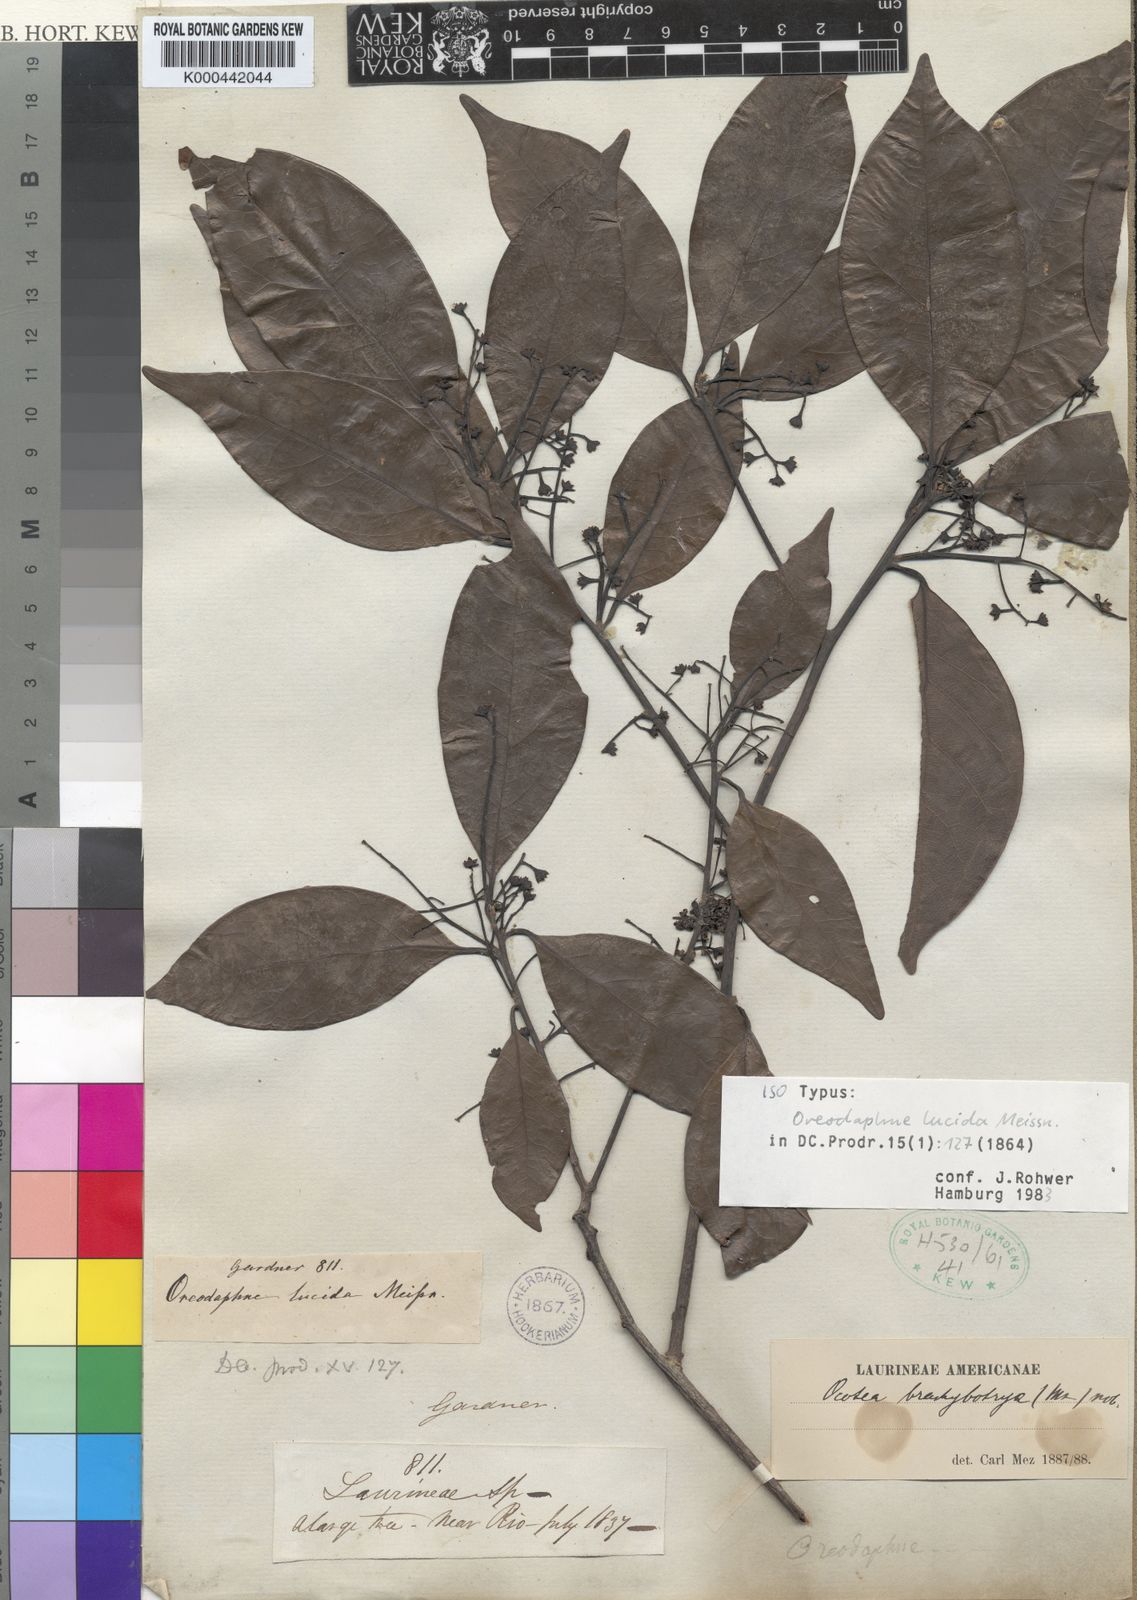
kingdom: Plantae
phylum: Tracheophyta
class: Magnoliopsida
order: Laurales
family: Lauraceae
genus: Ocotea
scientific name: Ocotea brachybotra
